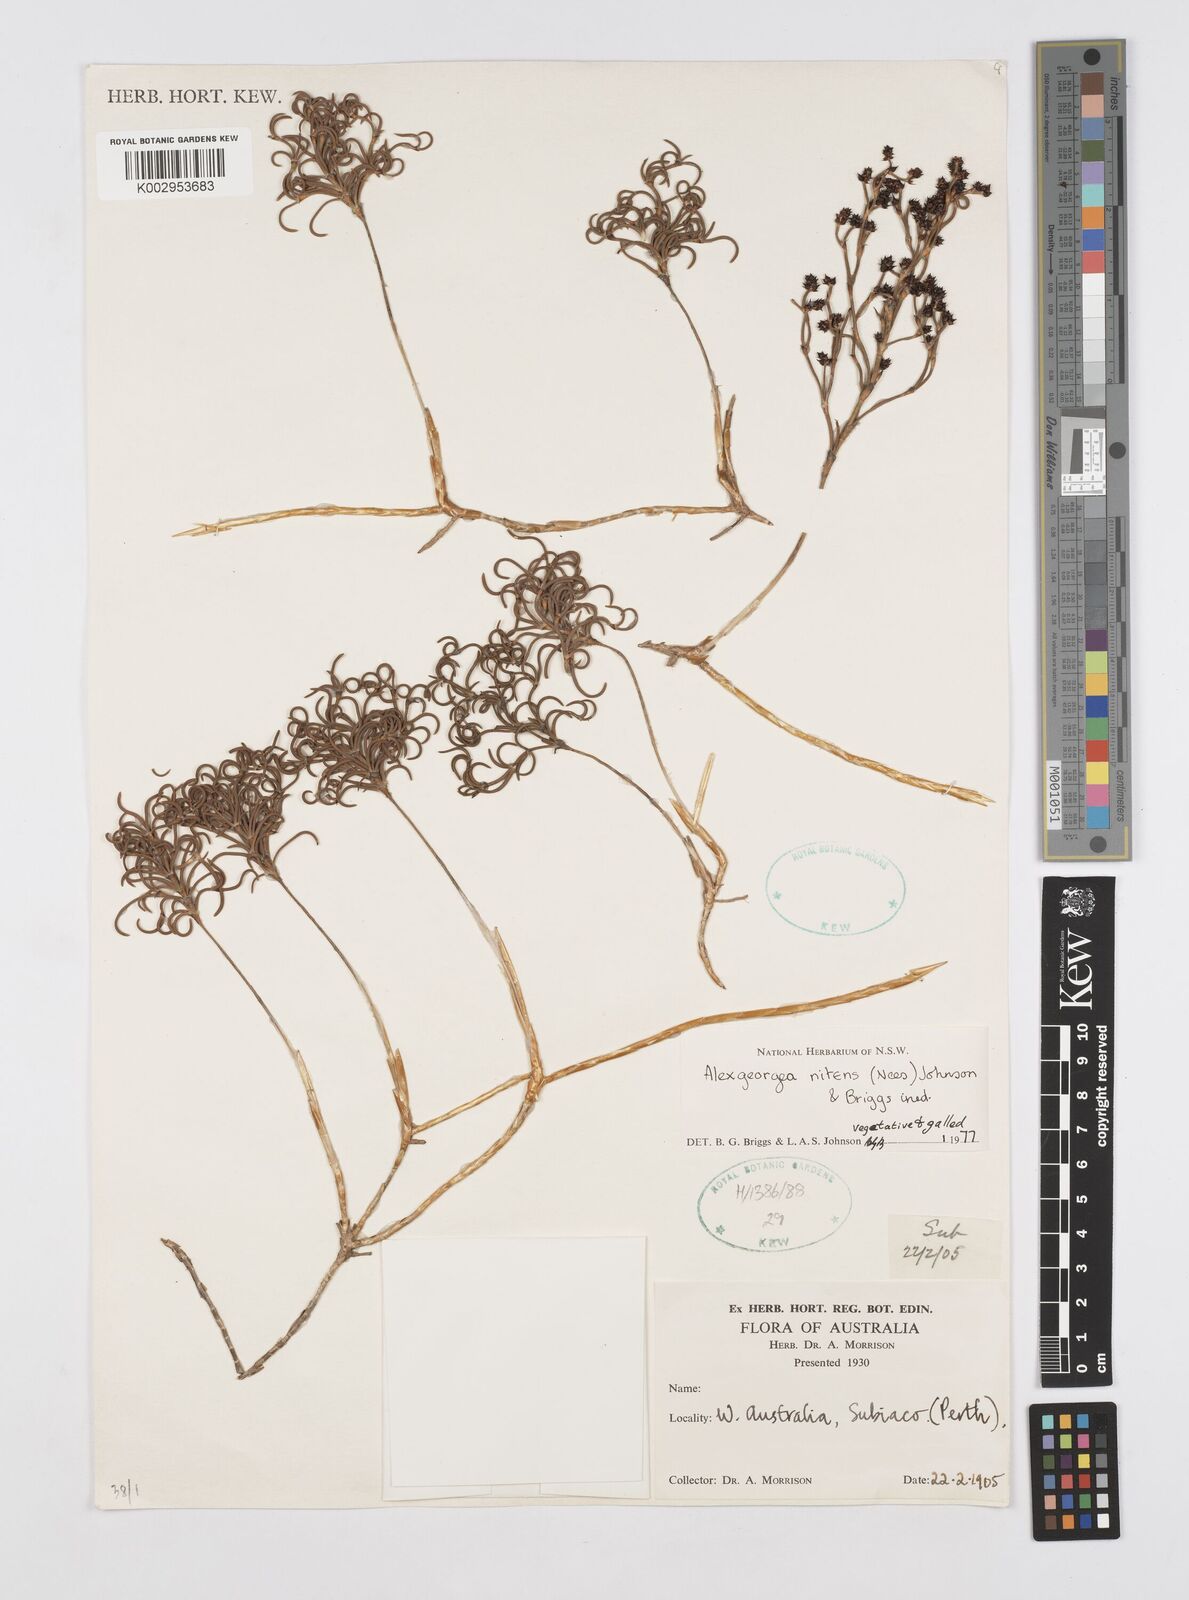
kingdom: Plantae
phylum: Tracheophyta
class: Liliopsida
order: Poales
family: Restionaceae
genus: Alexgeorgea
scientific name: Alexgeorgea nitens
